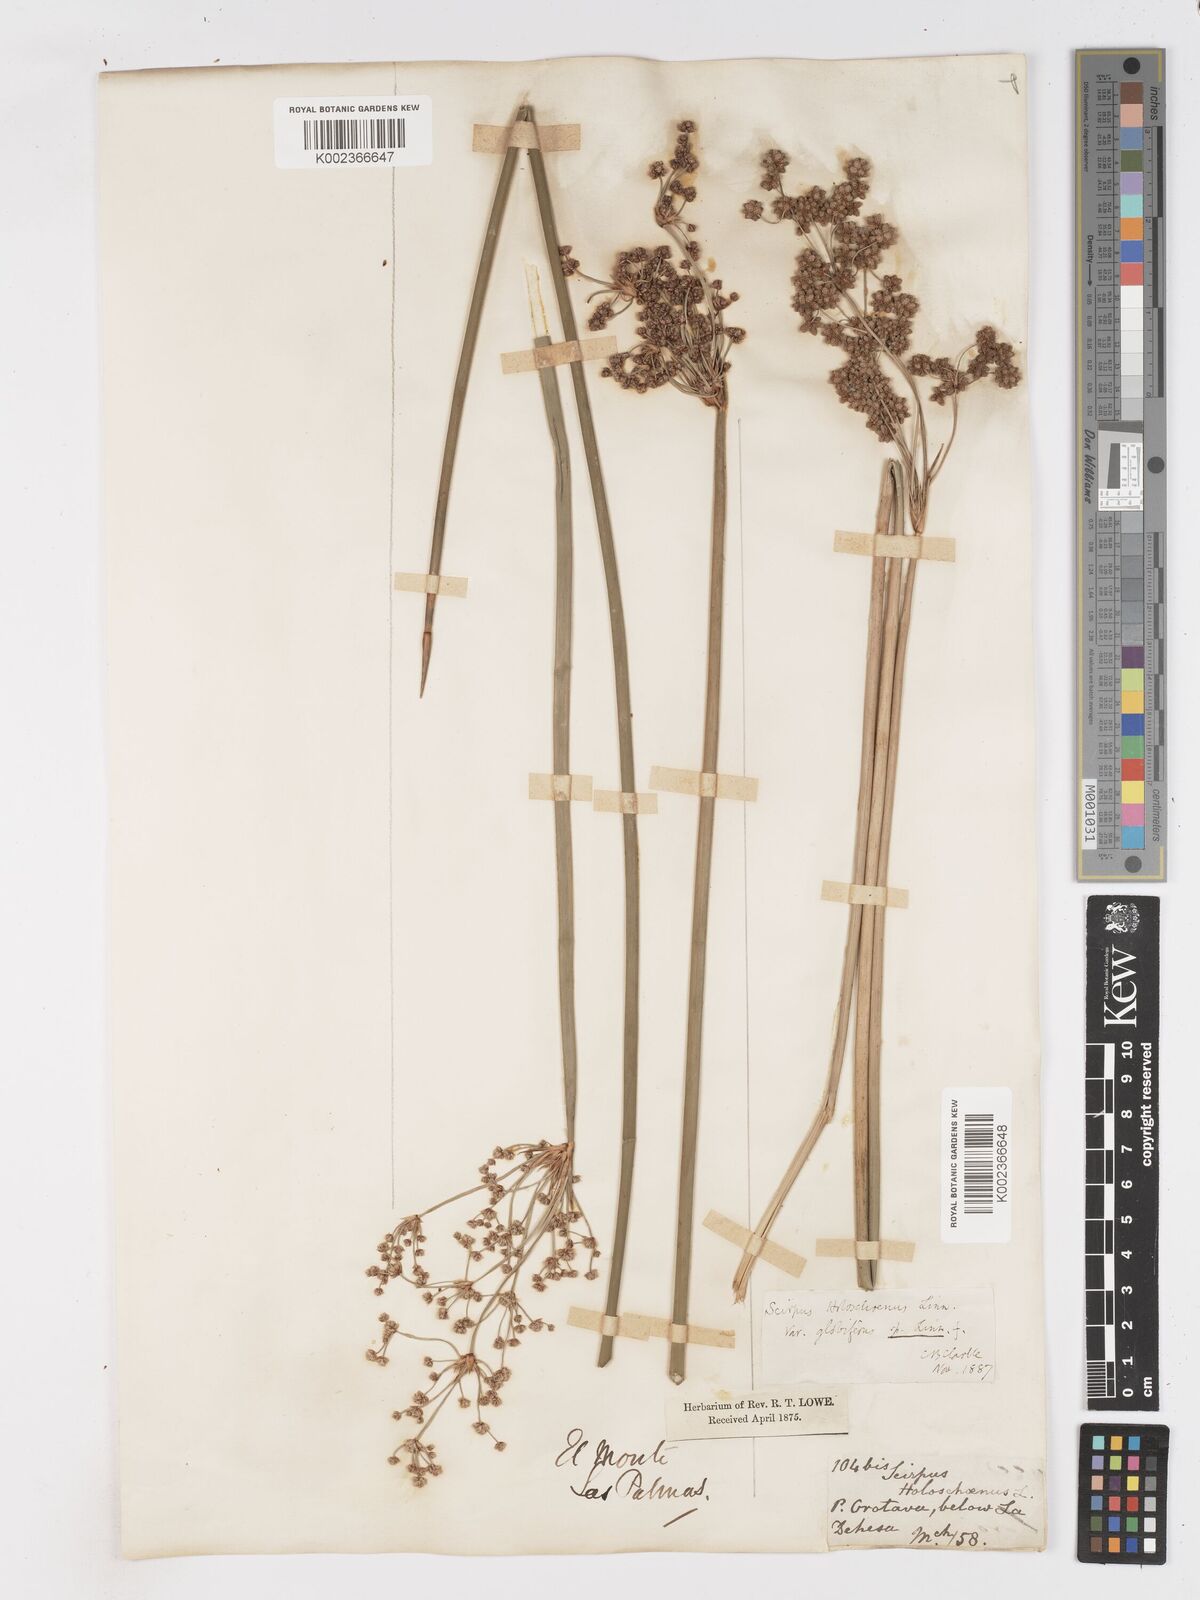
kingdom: Plantae
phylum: Tracheophyta
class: Liliopsida
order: Poales
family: Cyperaceae
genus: Scirpoides
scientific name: Scirpoides holoschoenus
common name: Round-headed club-rush
